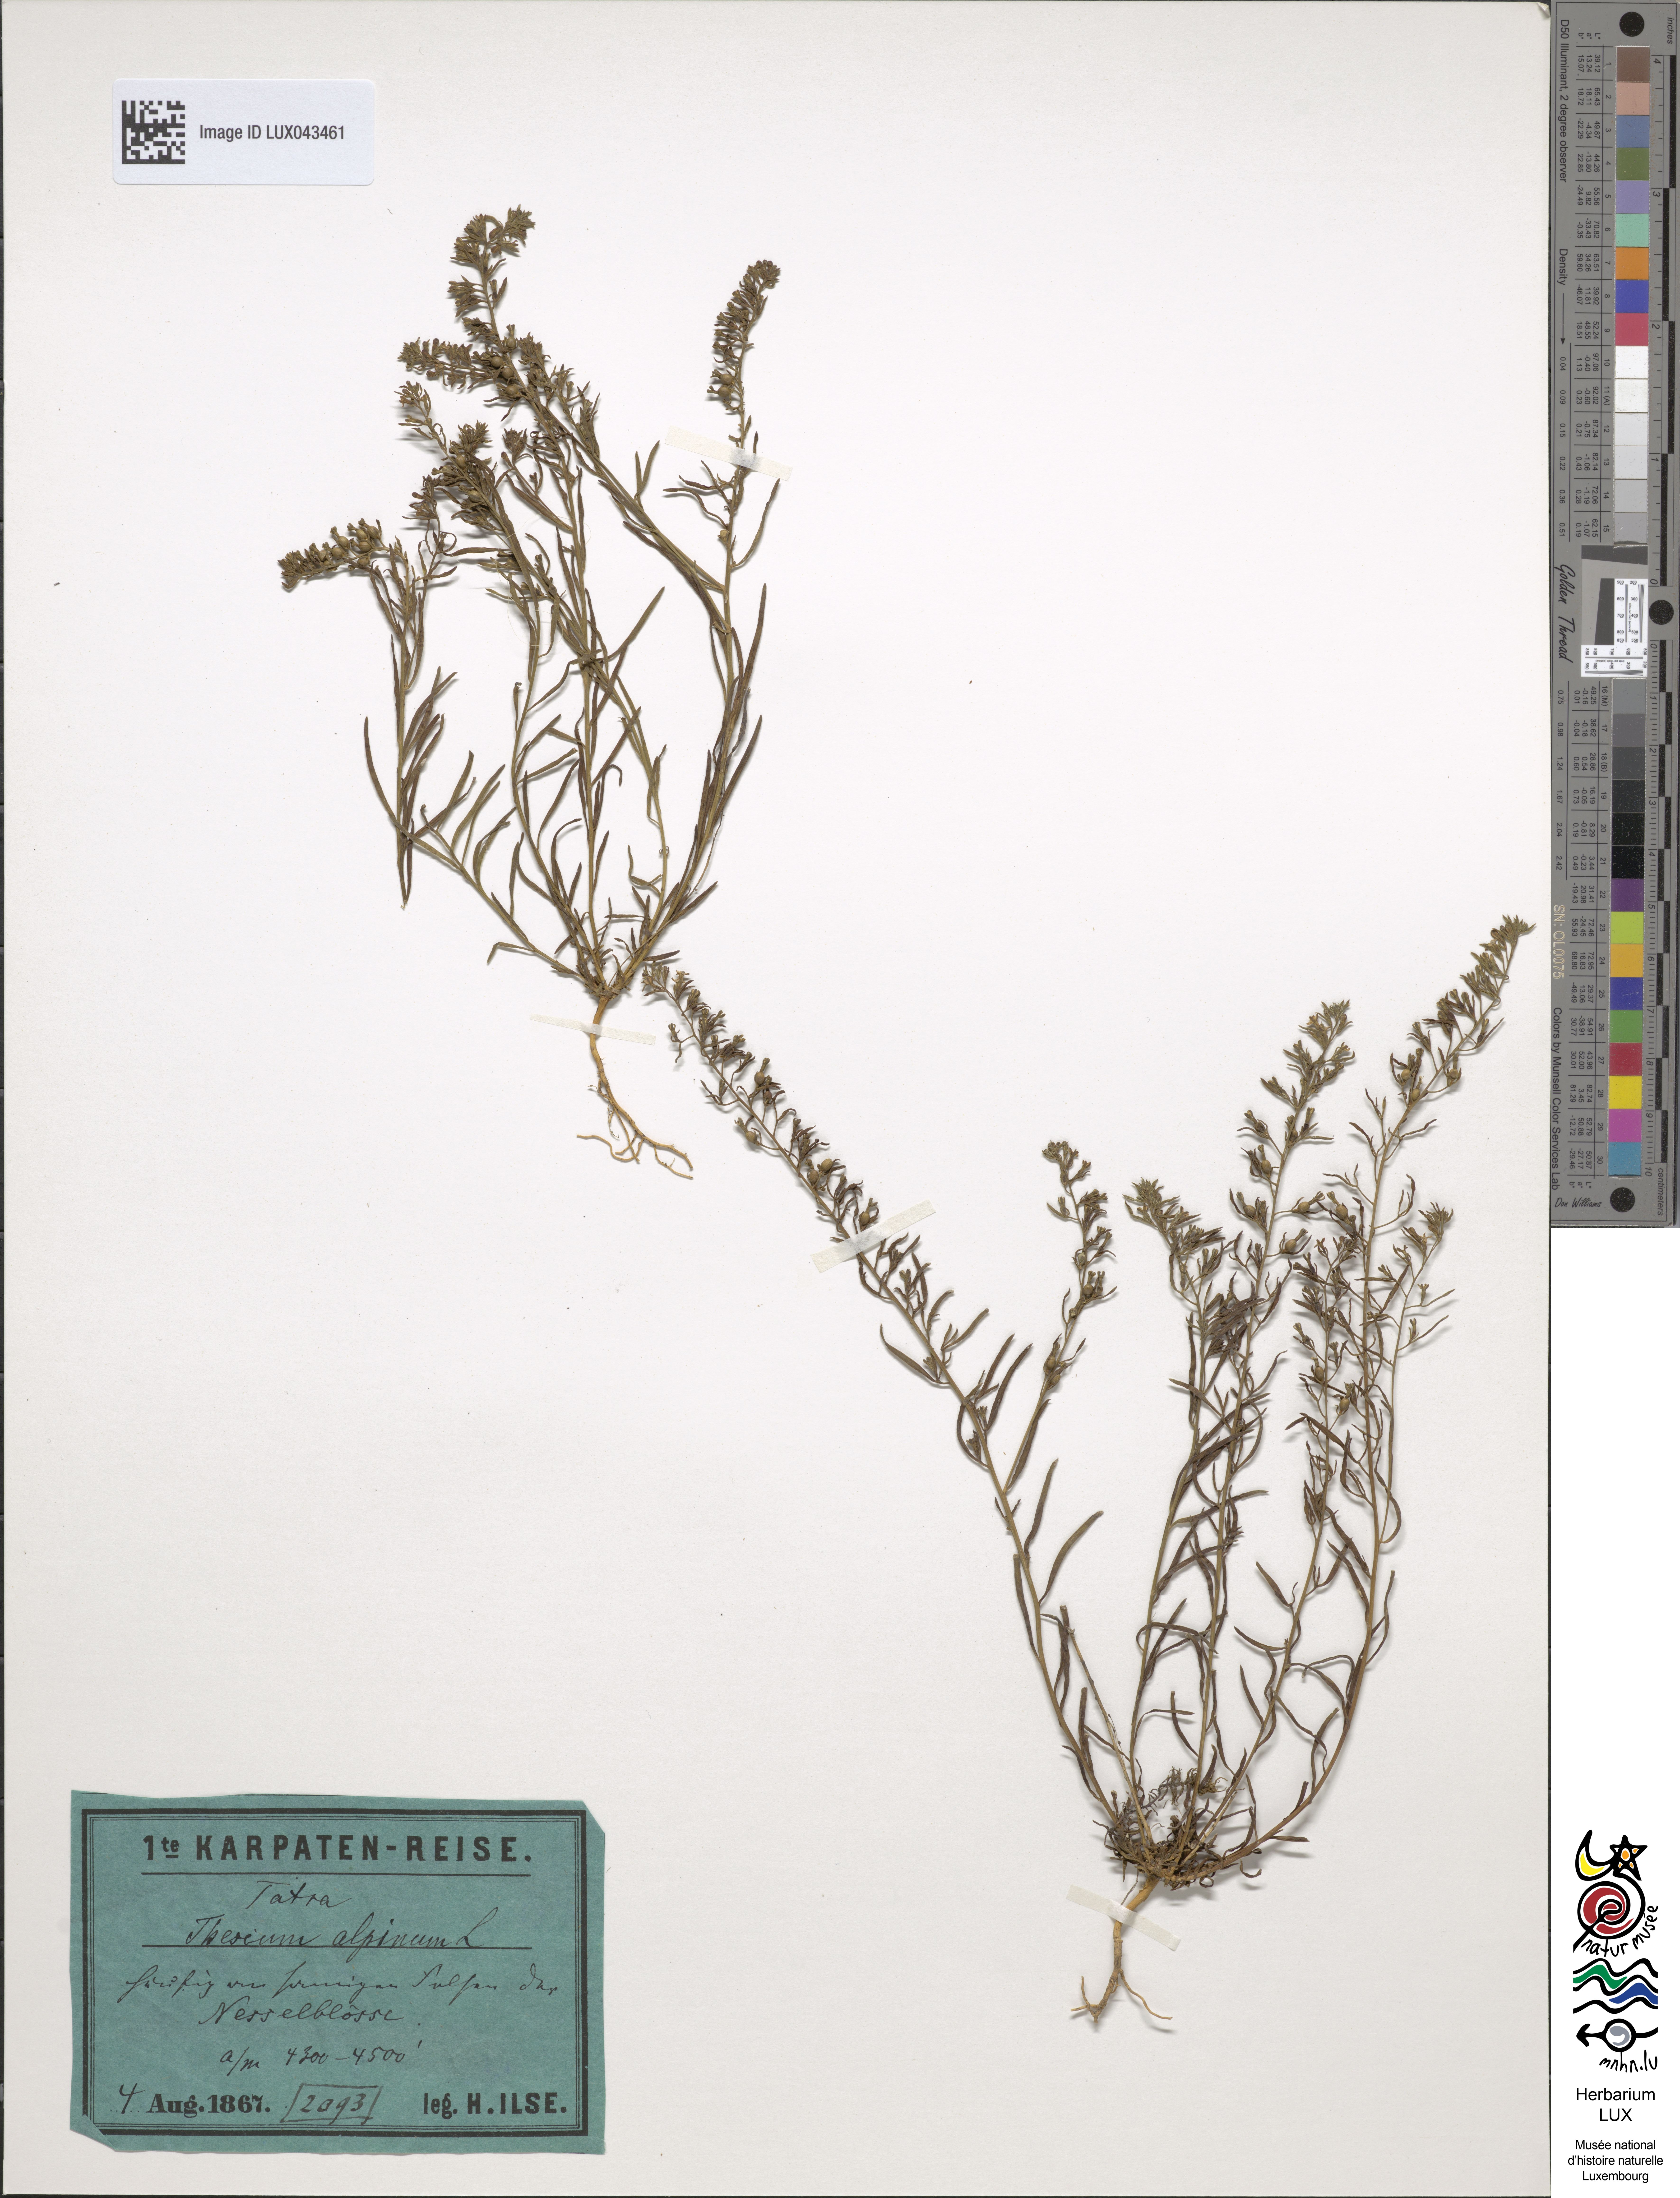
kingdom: Plantae
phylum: Tracheophyta
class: Magnoliopsida
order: Santalales
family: Thesiaceae
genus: Thesium
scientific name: Thesium alpinum
